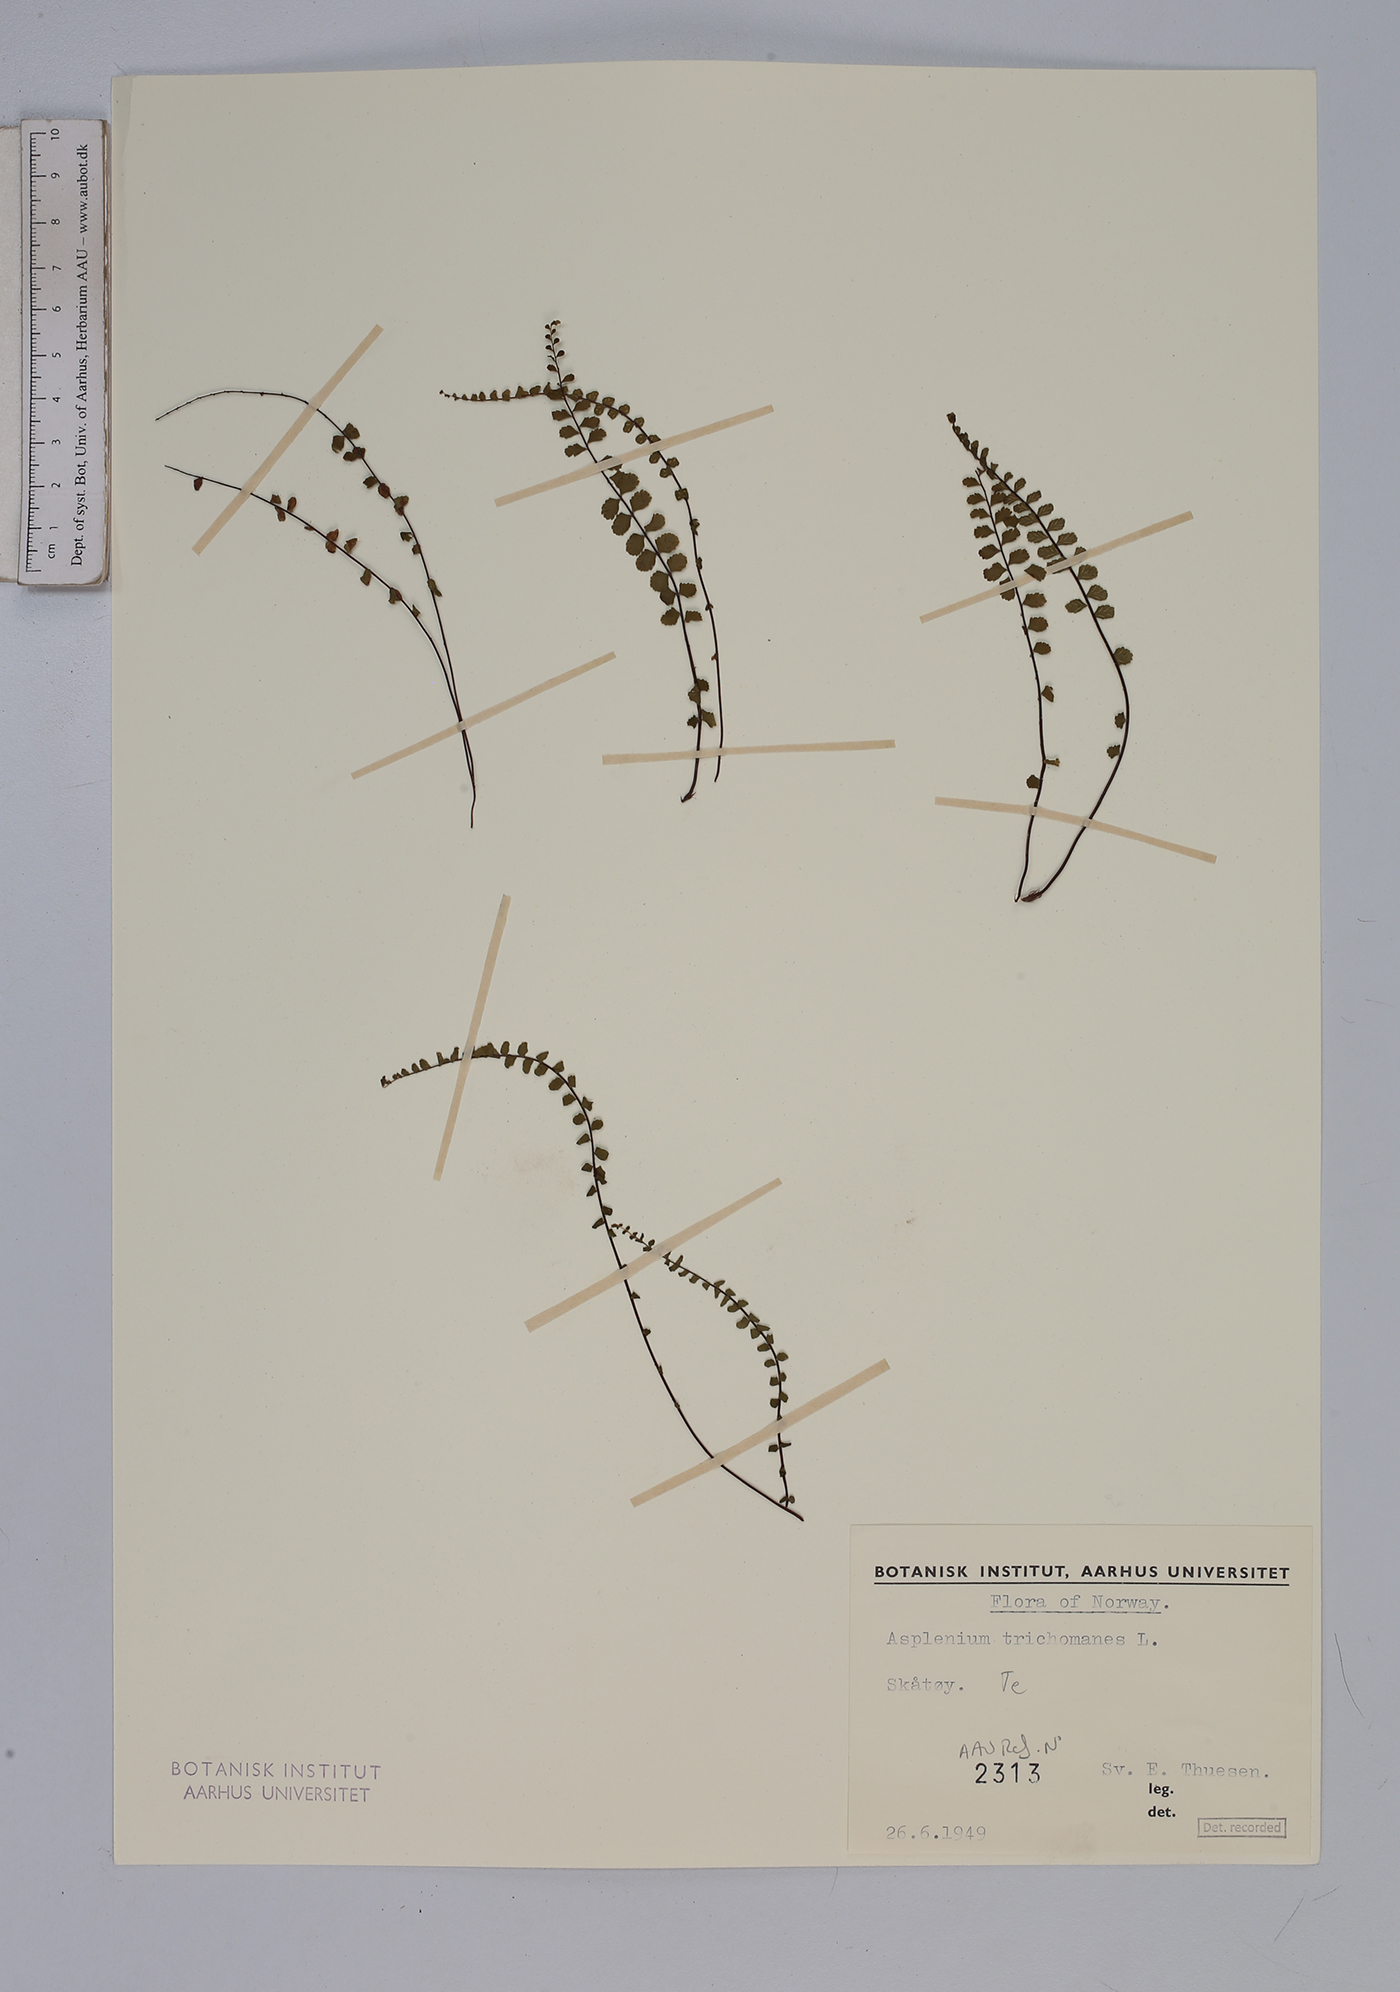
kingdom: Plantae
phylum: Tracheophyta
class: Polypodiopsida
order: Polypodiales
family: Aspleniaceae
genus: Asplenium
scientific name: Asplenium trichomanes
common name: Maidenhair spleenwort
